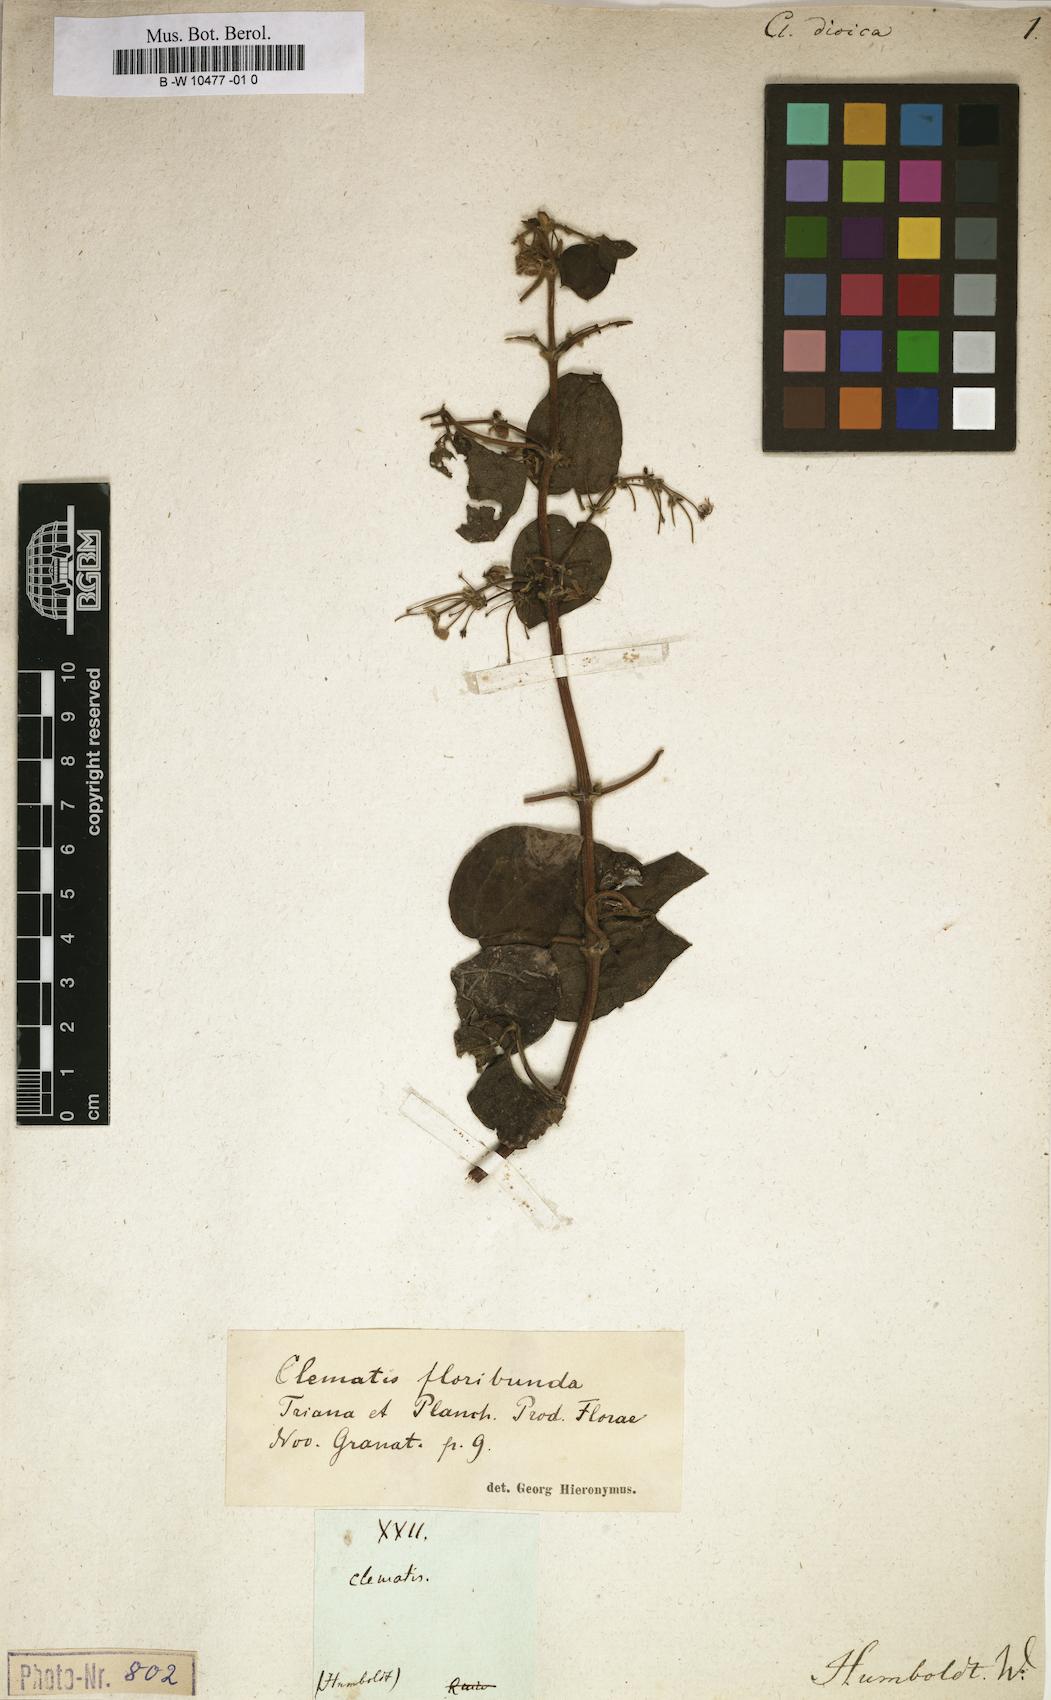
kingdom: Plantae
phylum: Tracheophyta
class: Magnoliopsida
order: Ranunculales
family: Ranunculaceae
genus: Clematis
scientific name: Clematis dioica
